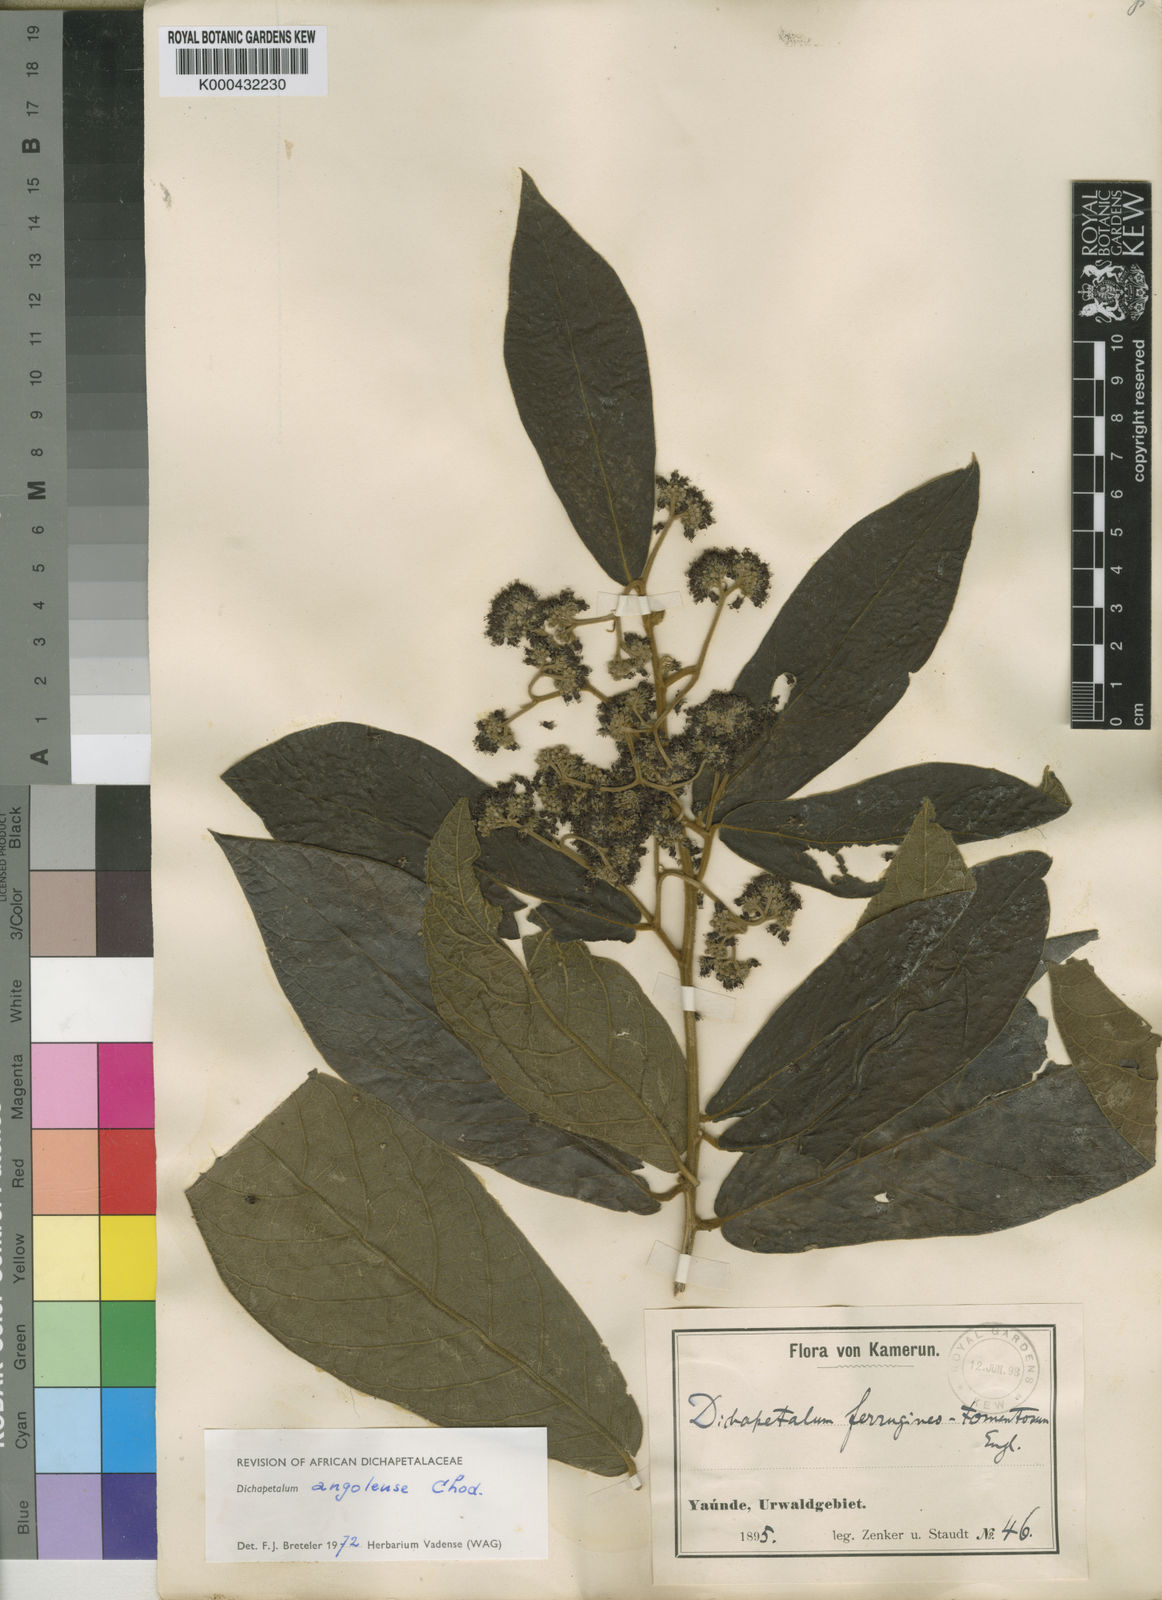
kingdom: Plantae
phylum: Tracheophyta
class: Magnoliopsida
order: Malpighiales
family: Dichapetalaceae
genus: Dichapetalum
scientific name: Dichapetalum angolense
